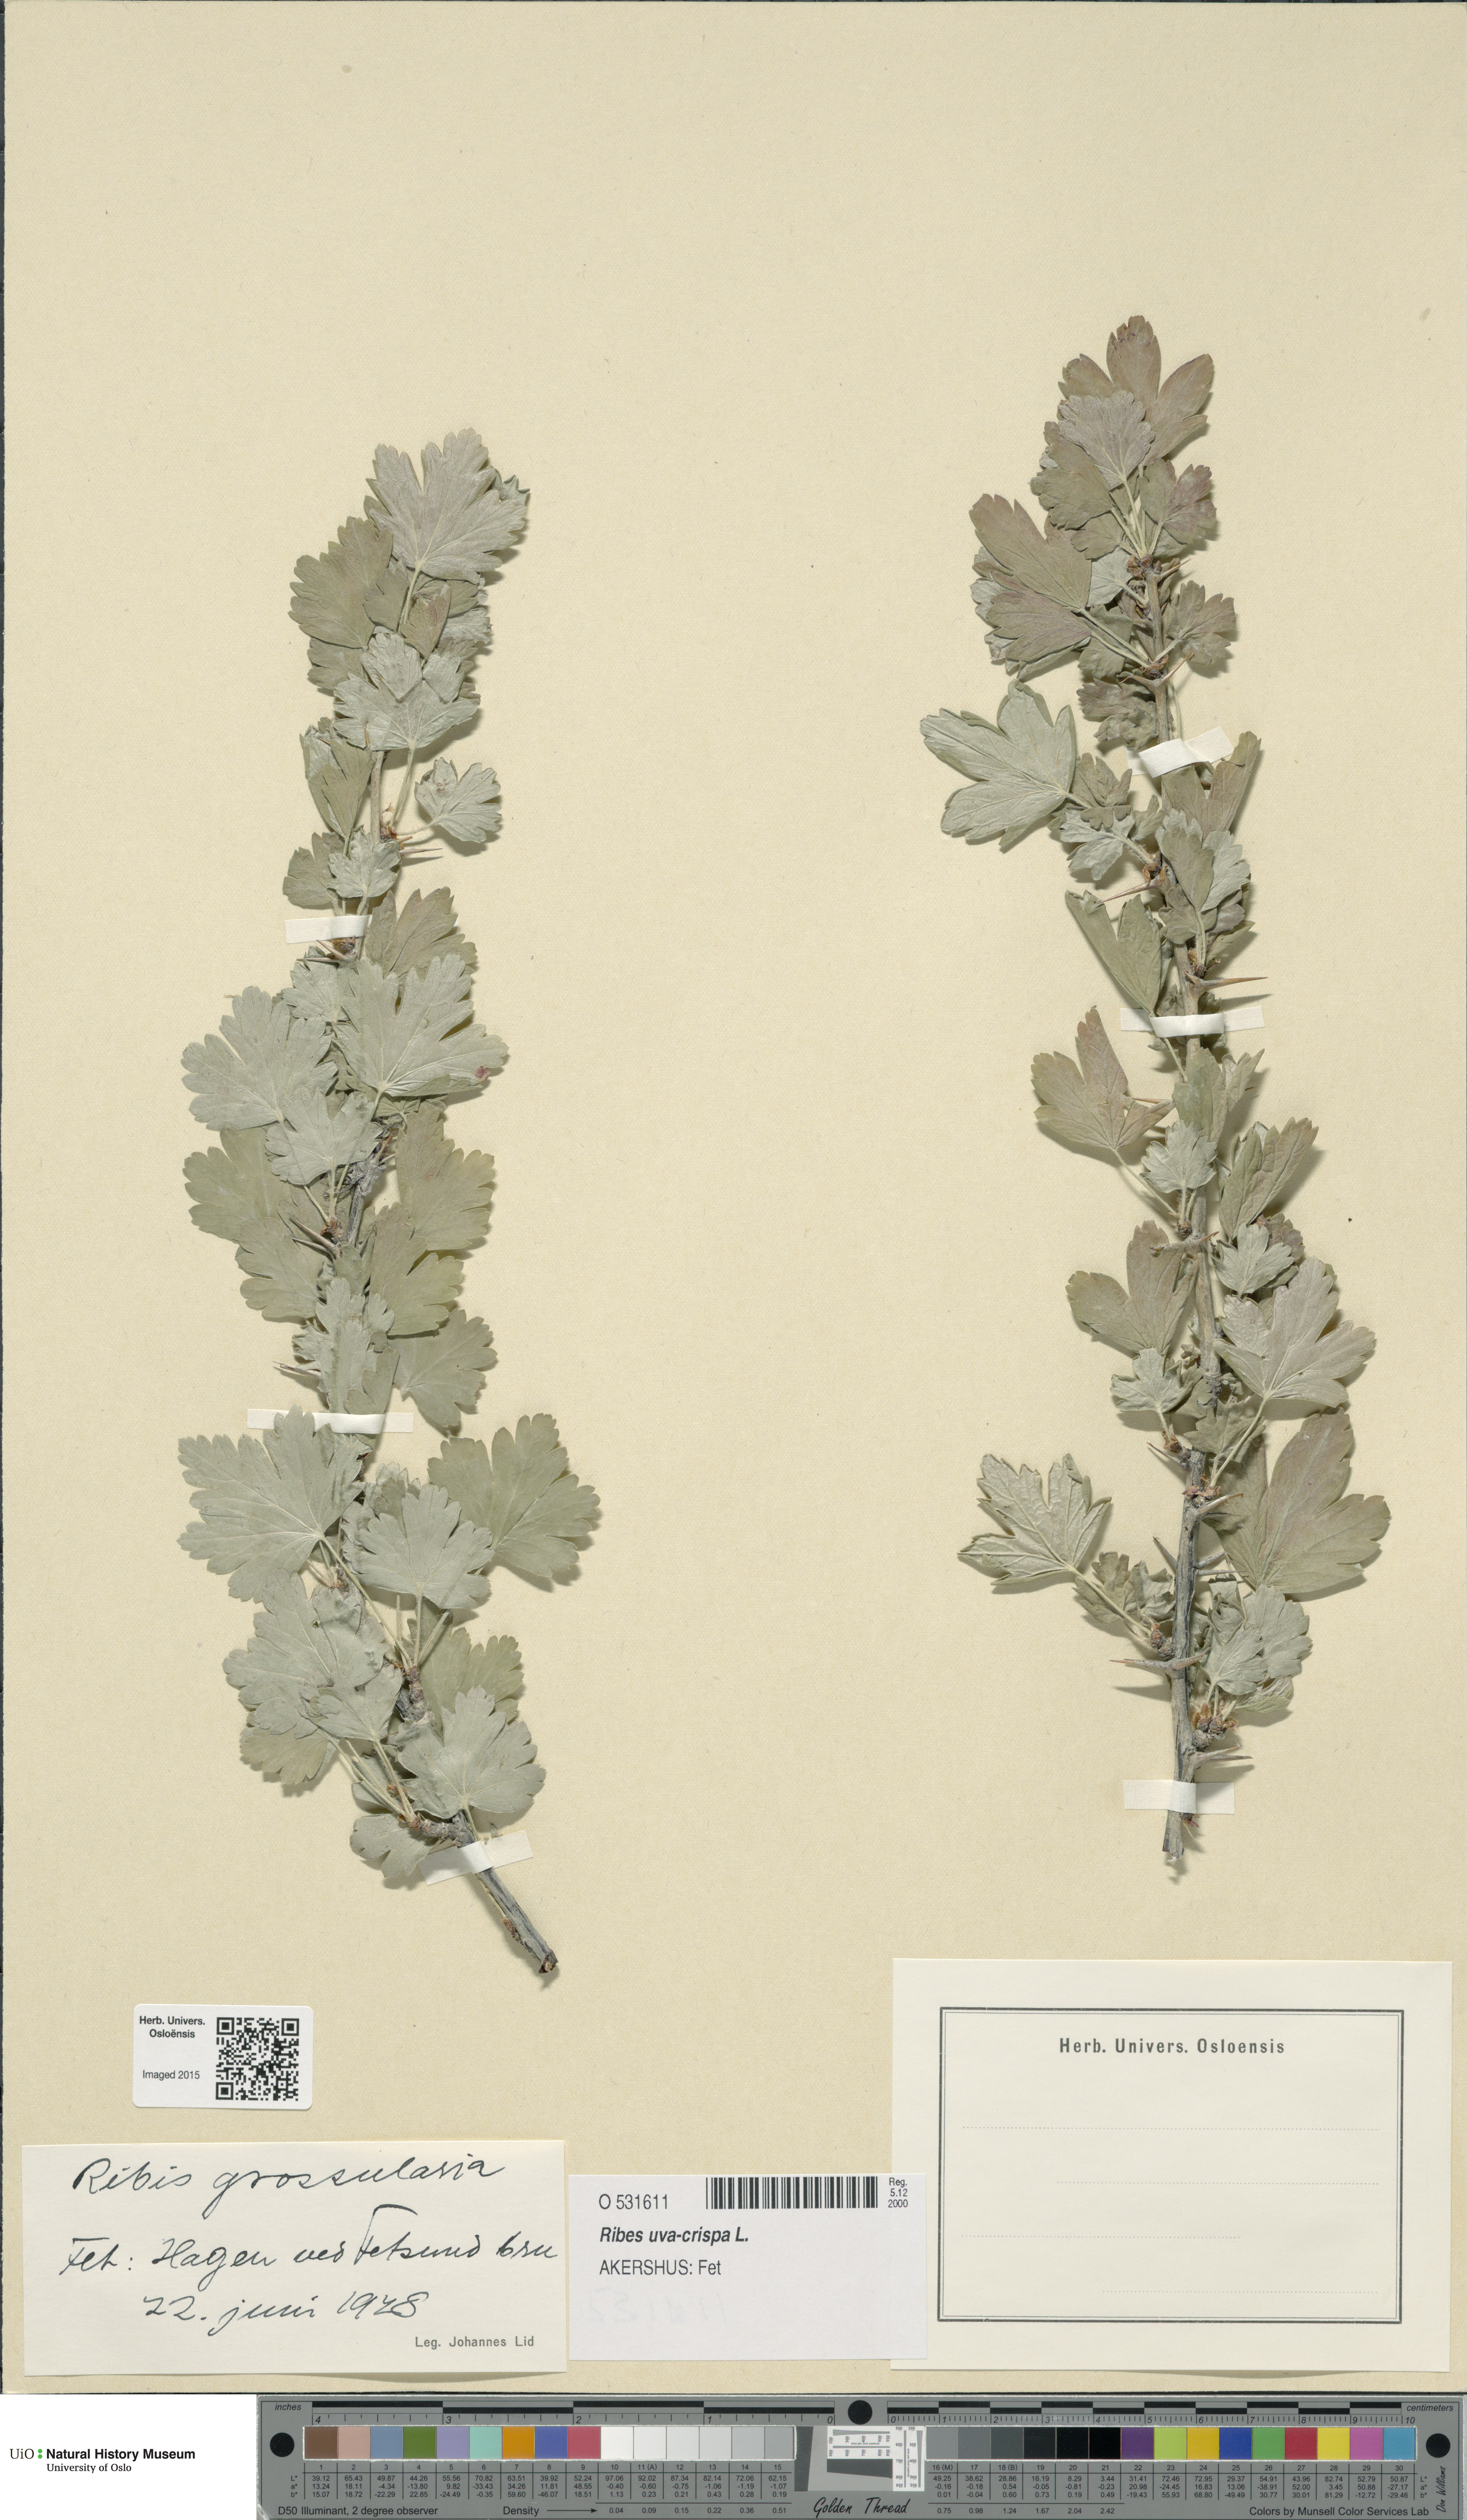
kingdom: Plantae
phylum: Tracheophyta
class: Magnoliopsida
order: Saxifragales
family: Grossulariaceae
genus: Ribes
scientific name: Ribes uva-crispa
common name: Gooseberry
